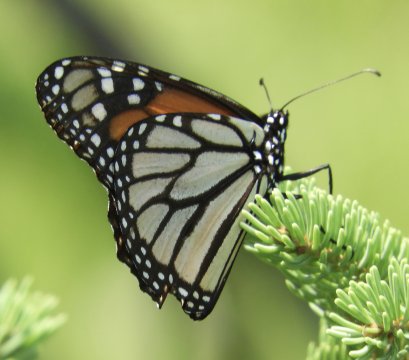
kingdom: Animalia
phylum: Arthropoda
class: Insecta
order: Lepidoptera
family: Nymphalidae
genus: Danaus
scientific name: Danaus plexippus
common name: Monarch
